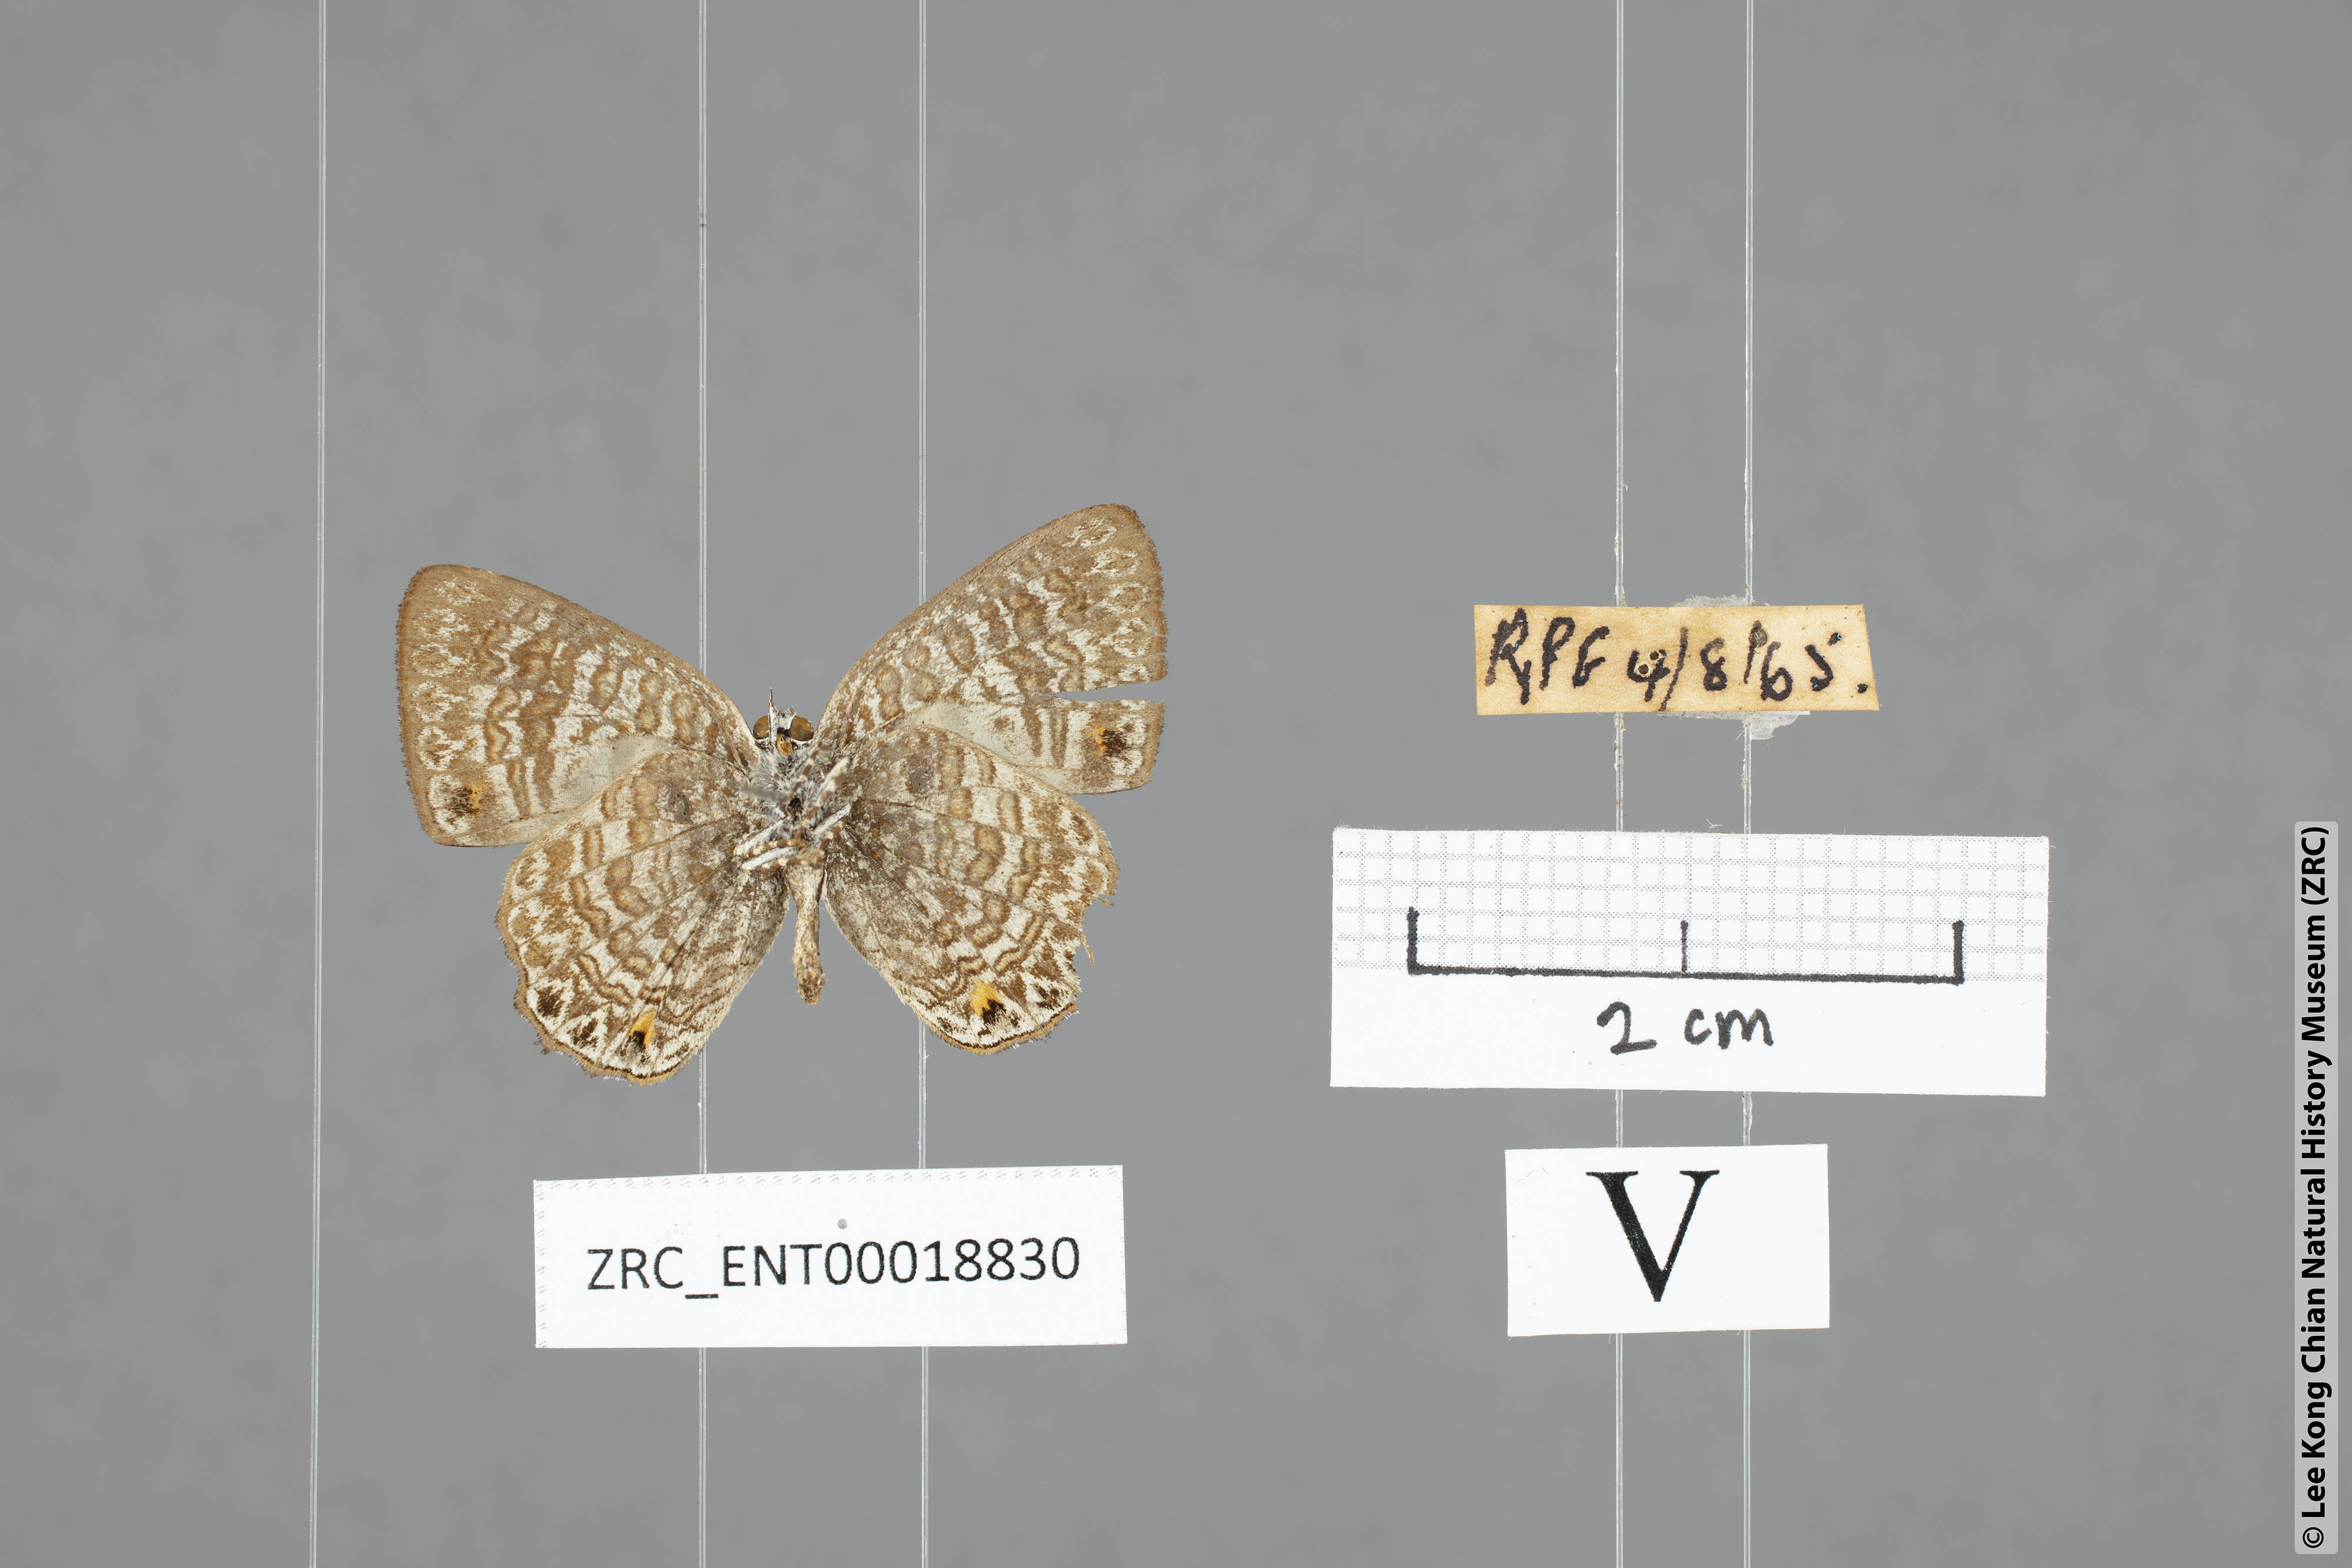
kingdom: Animalia
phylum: Arthropoda
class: Insecta
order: Lepidoptera
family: Lycaenidae
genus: Poritia
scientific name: Poritia pleurata
